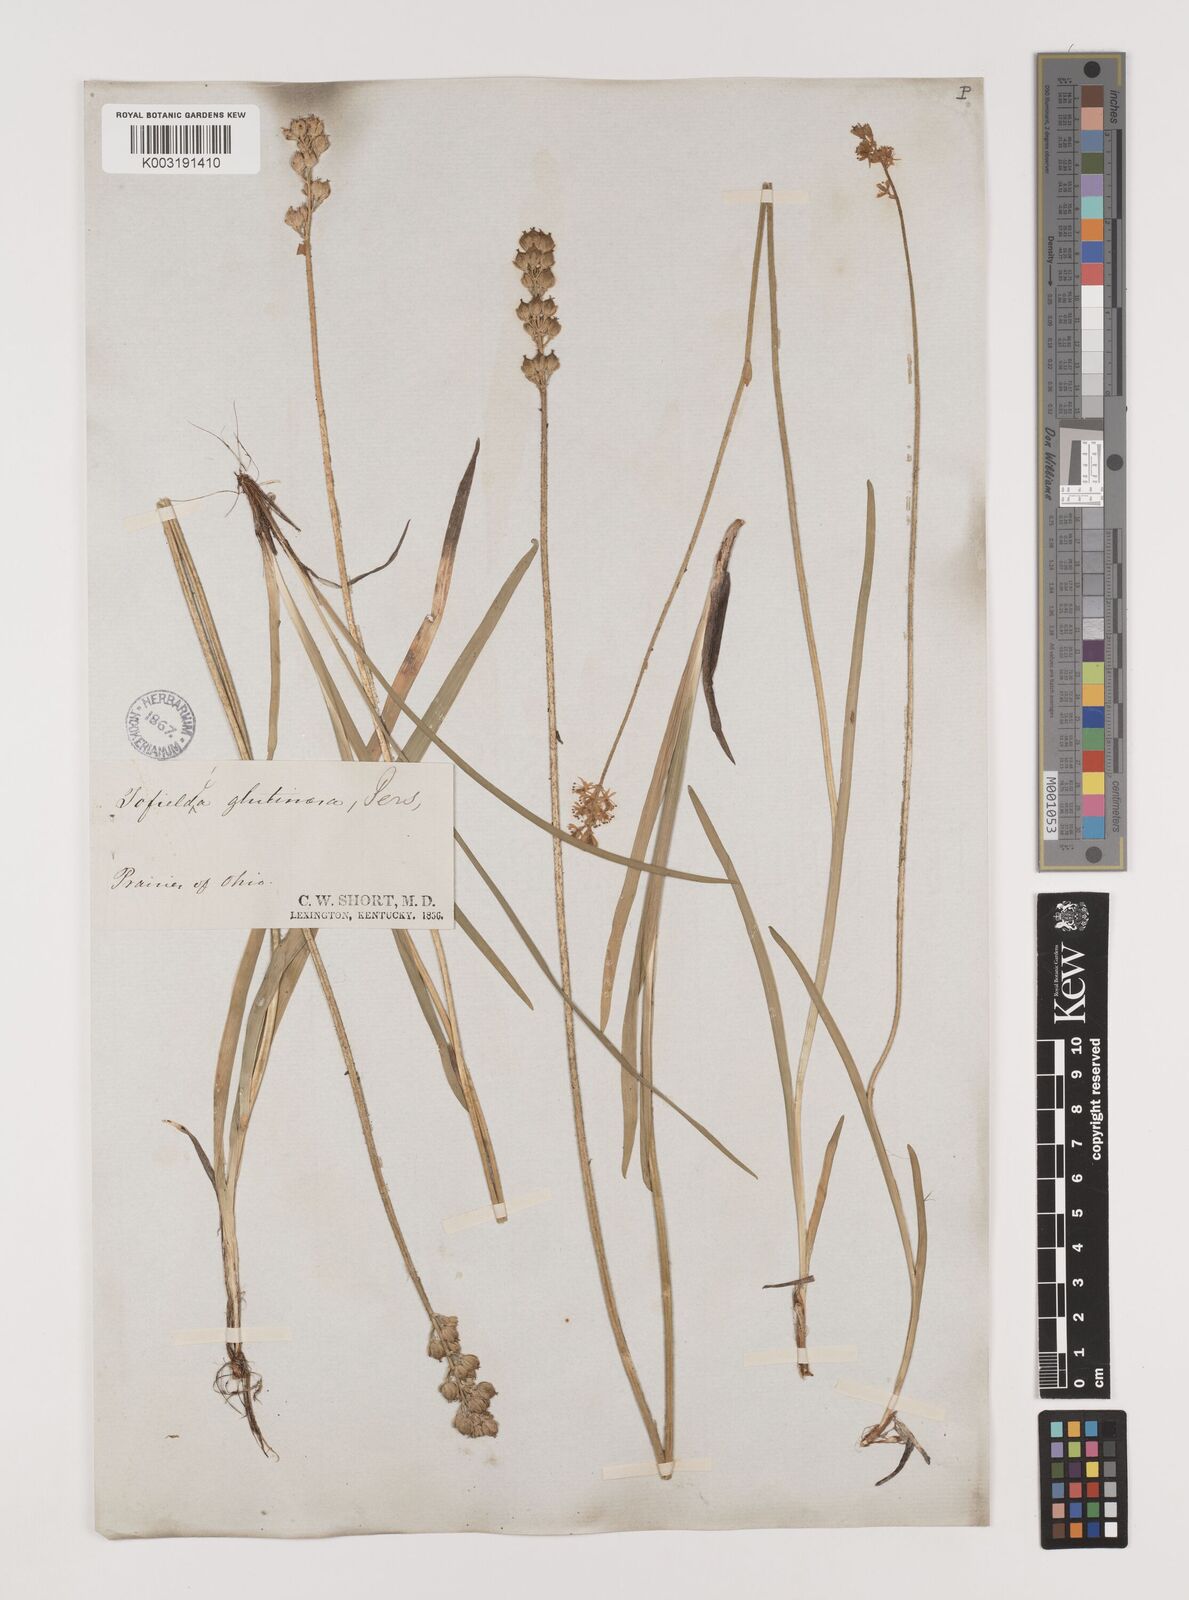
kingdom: Plantae
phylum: Tracheophyta
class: Liliopsida
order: Alismatales
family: Tofieldiaceae
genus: Triantha
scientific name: Triantha glutinosa
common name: Glutinous tofieldia
